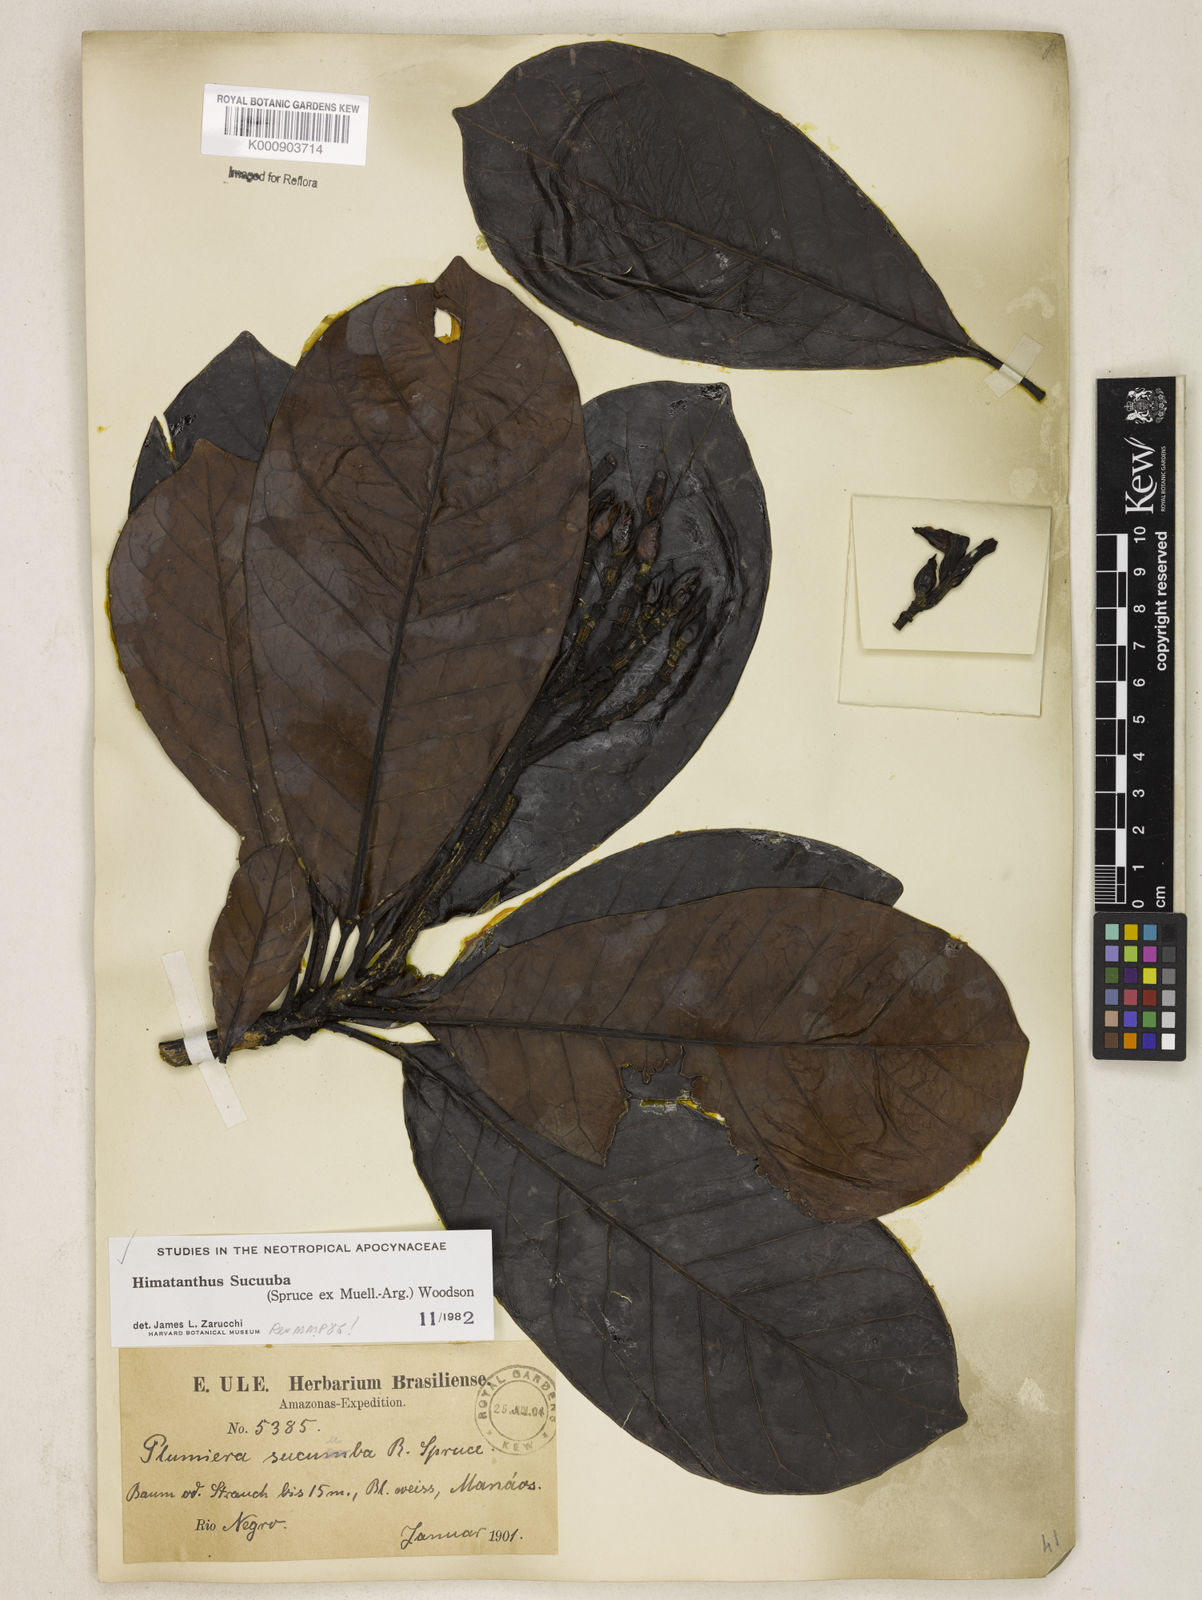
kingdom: Plantae
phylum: Tracheophyta
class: Magnoliopsida
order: Gentianales
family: Apocynaceae
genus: Himatanthus
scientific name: Himatanthus articulatus
